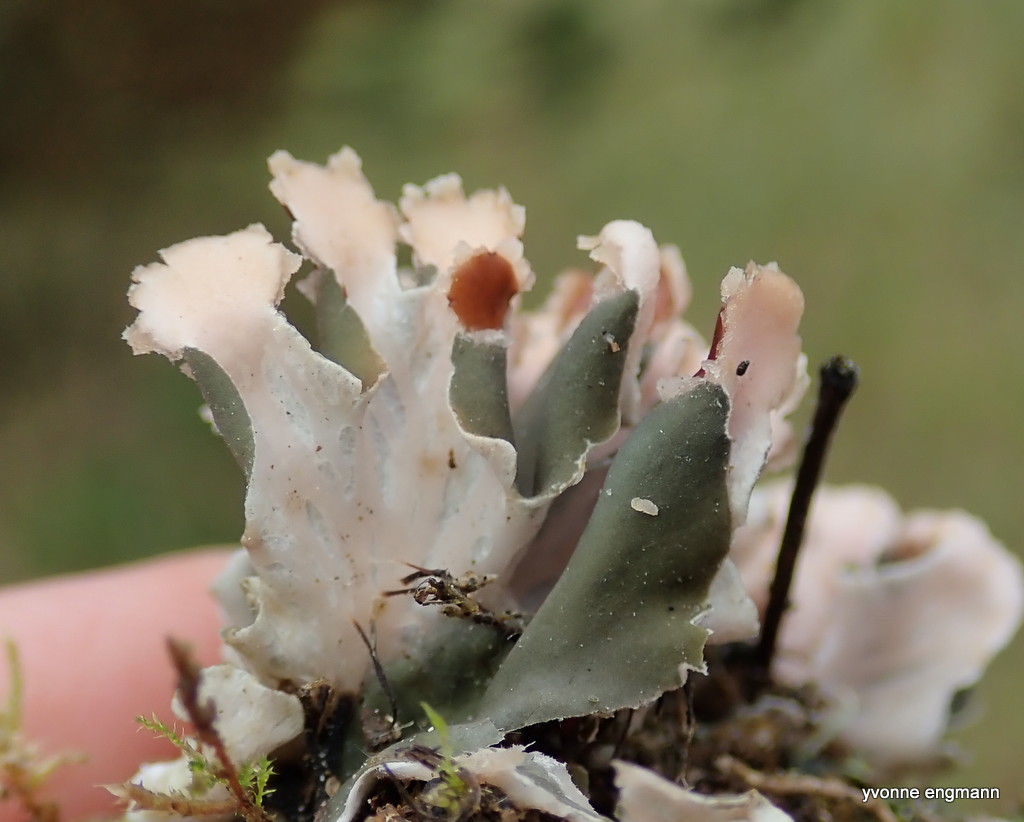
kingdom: Fungi
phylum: Ascomycota
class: Lecanoromycetes
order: Peltigerales
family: Peltigeraceae
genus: Peltigera
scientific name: Peltigera didactyla
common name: liden skjoldlav
